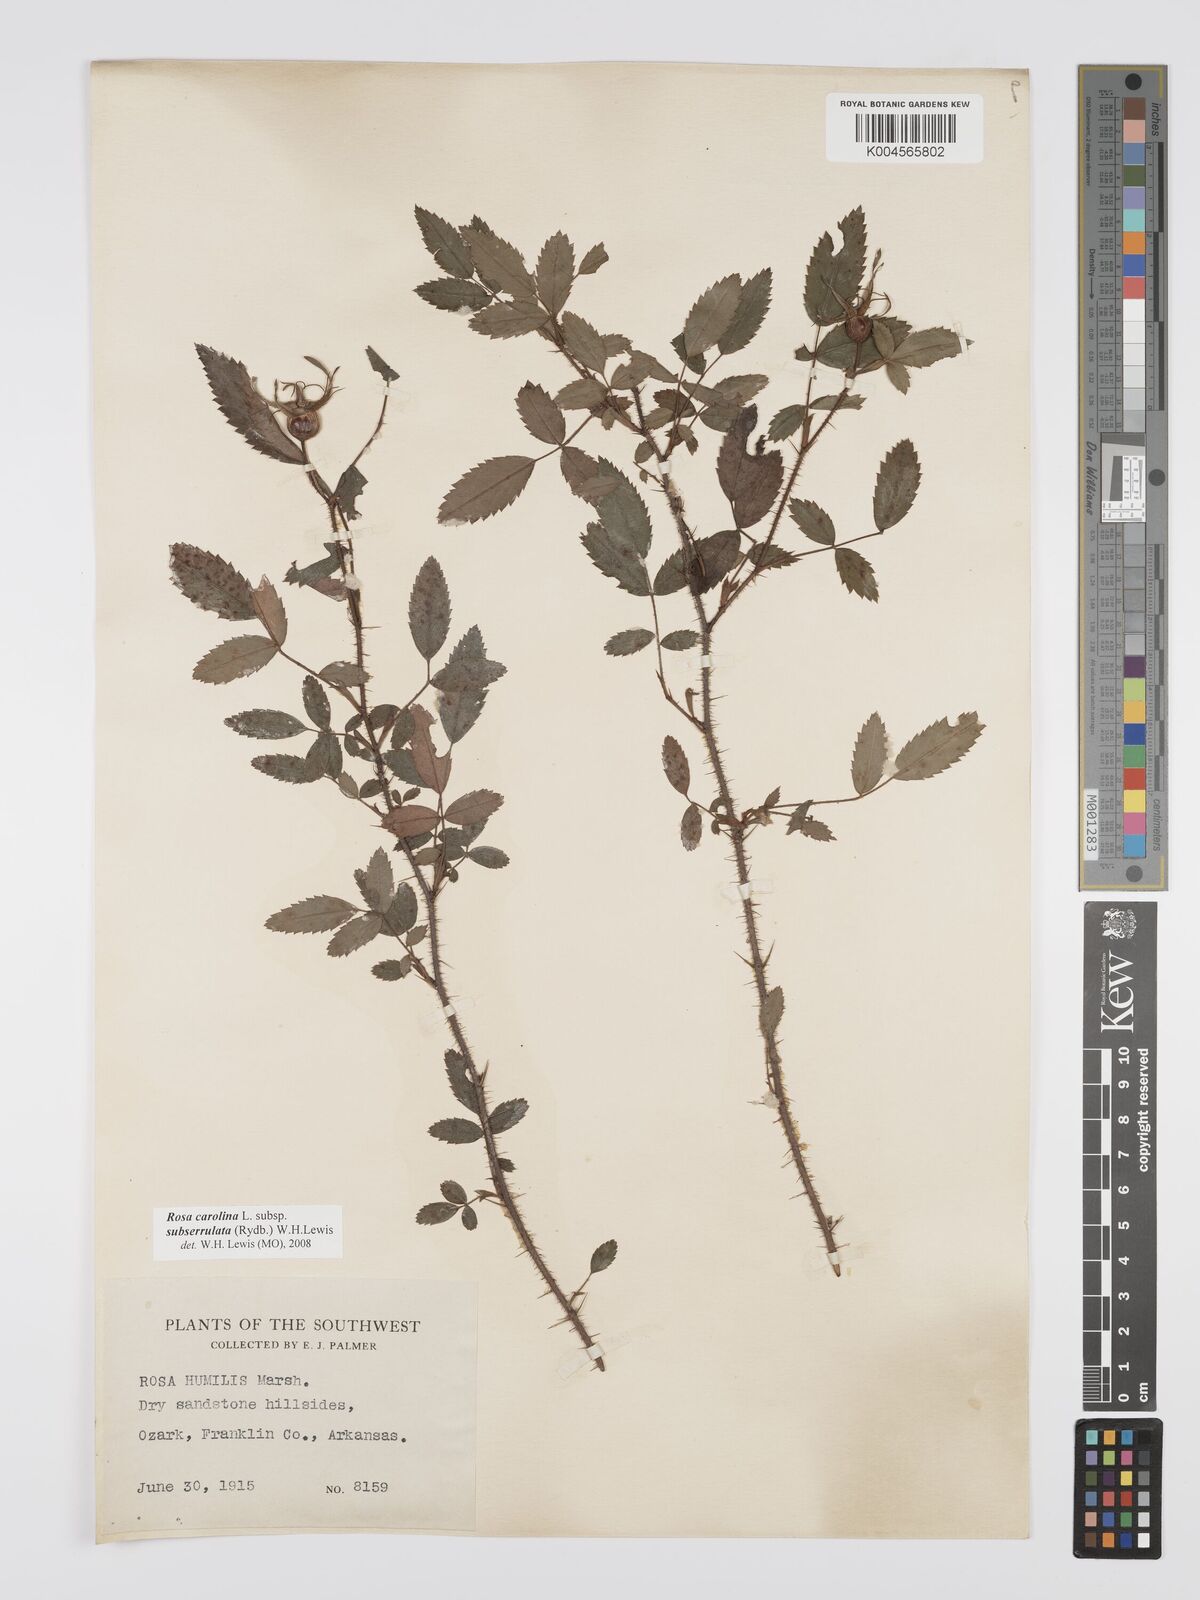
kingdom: Plantae
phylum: Tracheophyta
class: Magnoliopsida
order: Rosales
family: Rosaceae
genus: Rosa
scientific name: Rosa carolina
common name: Pasture rose
